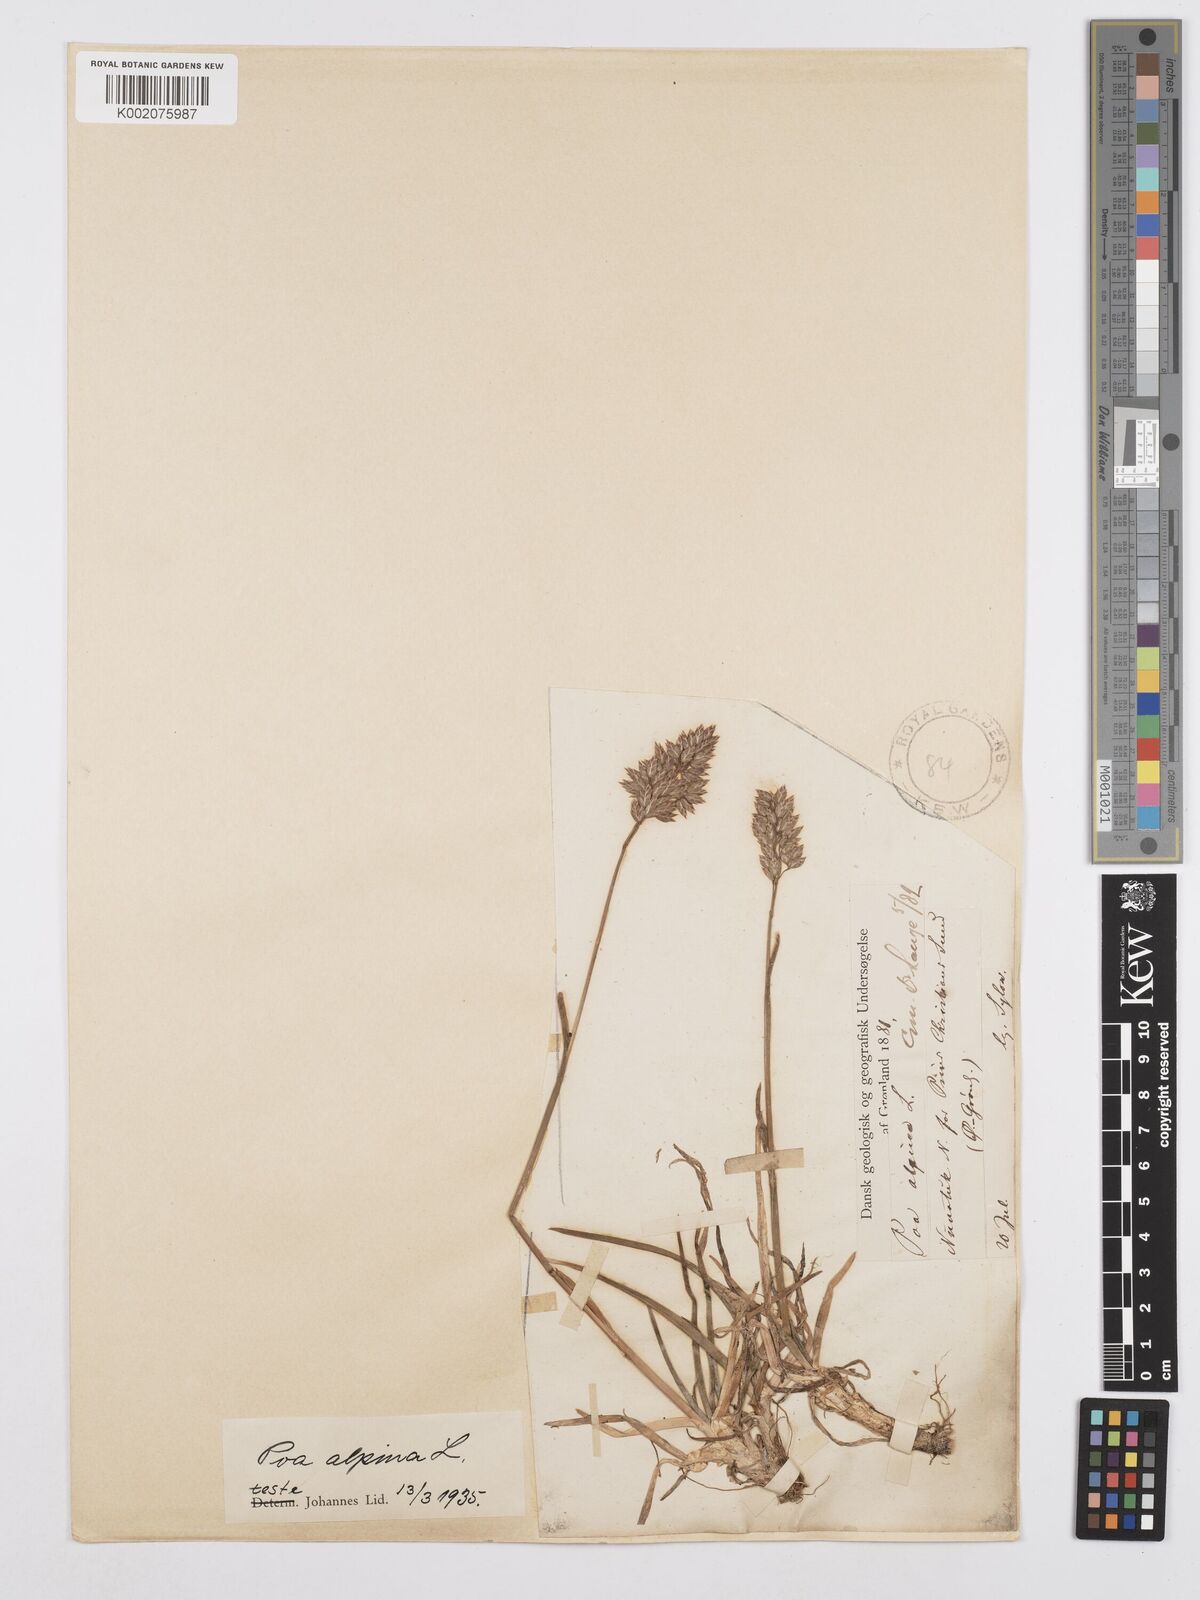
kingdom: Plantae
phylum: Tracheophyta
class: Liliopsida
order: Poales
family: Poaceae
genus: Poa
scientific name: Poa alpina
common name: Alpine bluegrass
